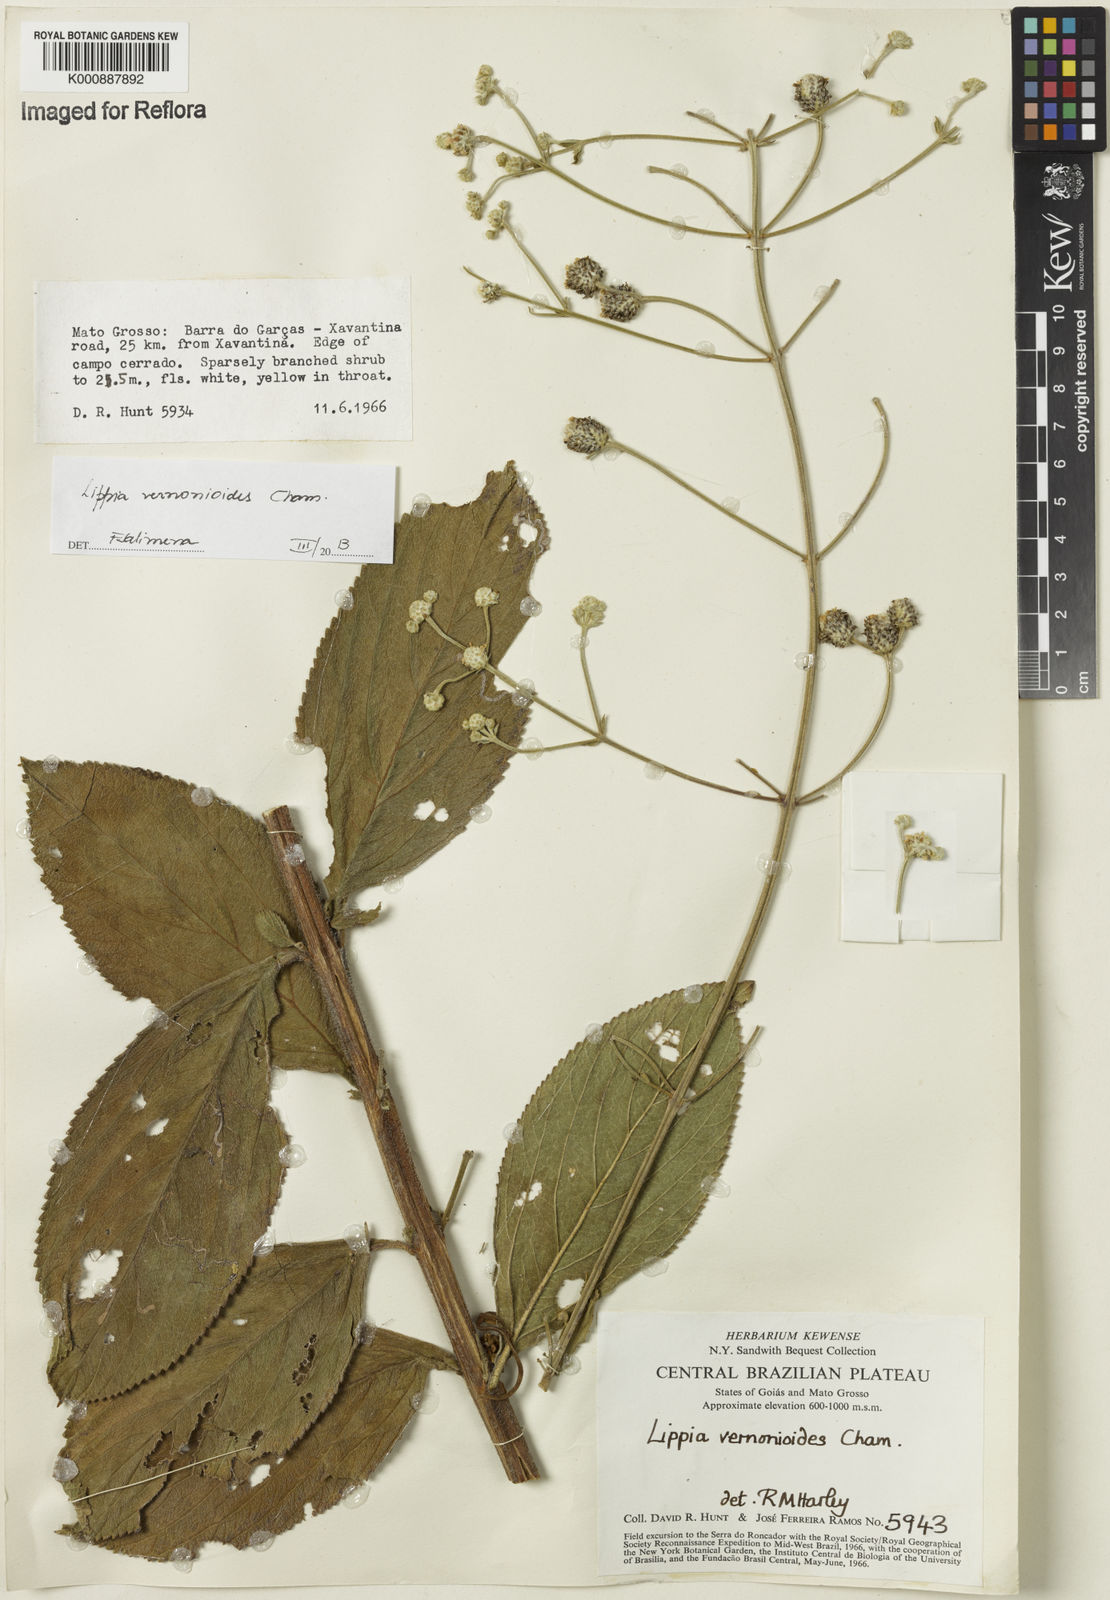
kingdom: Plantae
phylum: Tracheophyta
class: Magnoliopsida
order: Lamiales
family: Verbenaceae
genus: Lippia
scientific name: Lippia vernonioides
